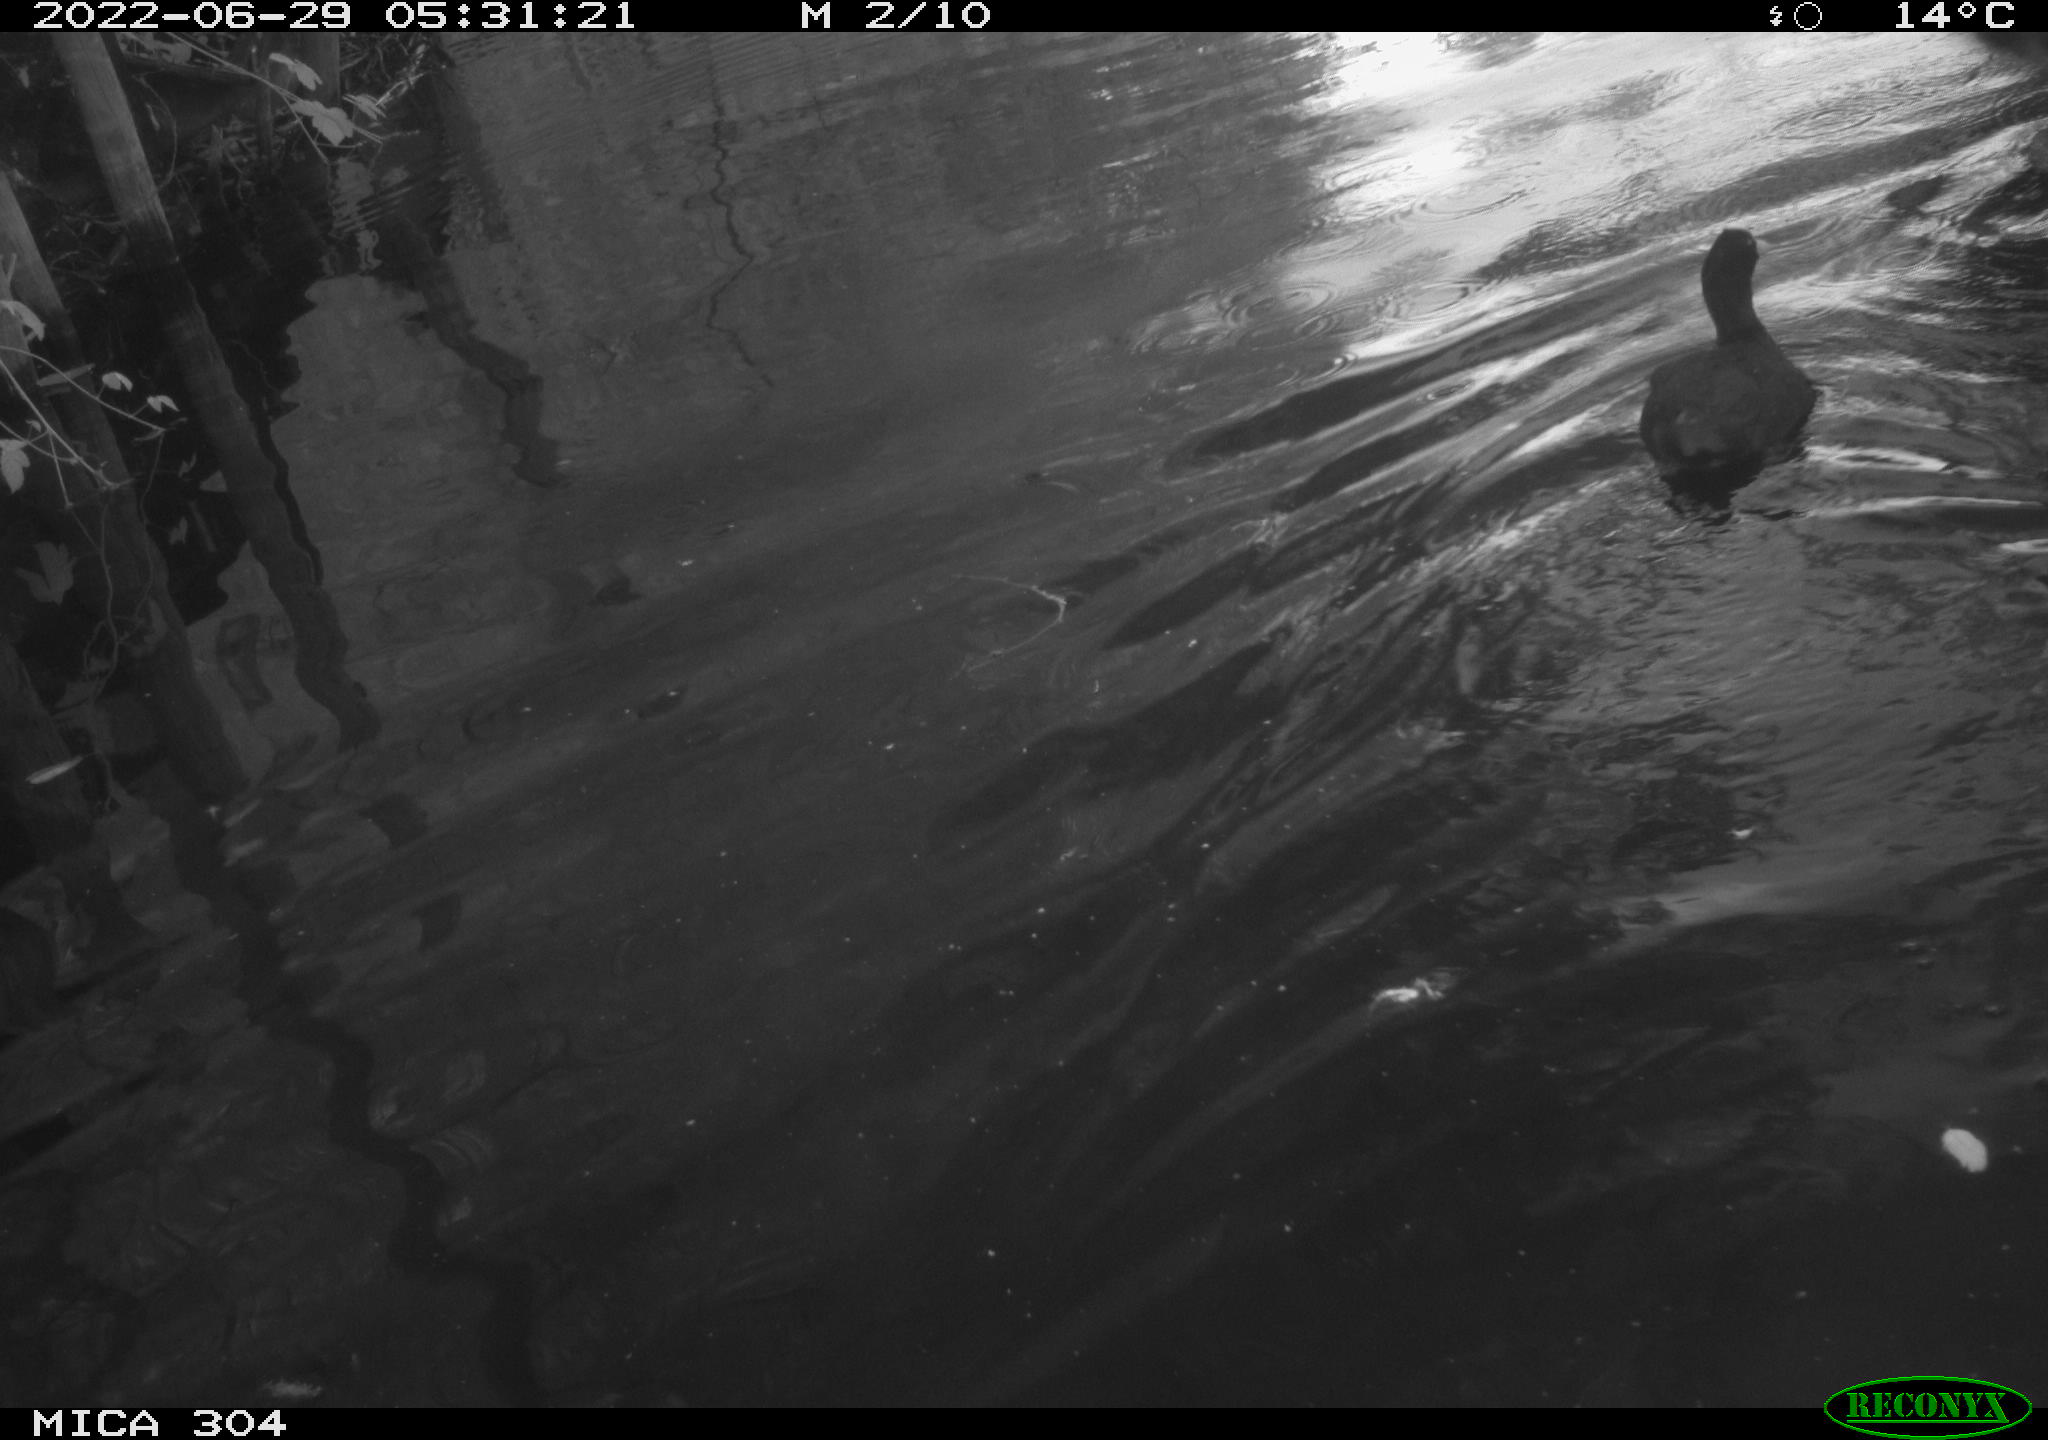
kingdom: Animalia
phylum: Chordata
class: Aves
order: Gruiformes
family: Rallidae
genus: Fulica
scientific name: Fulica atra
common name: Eurasian coot
